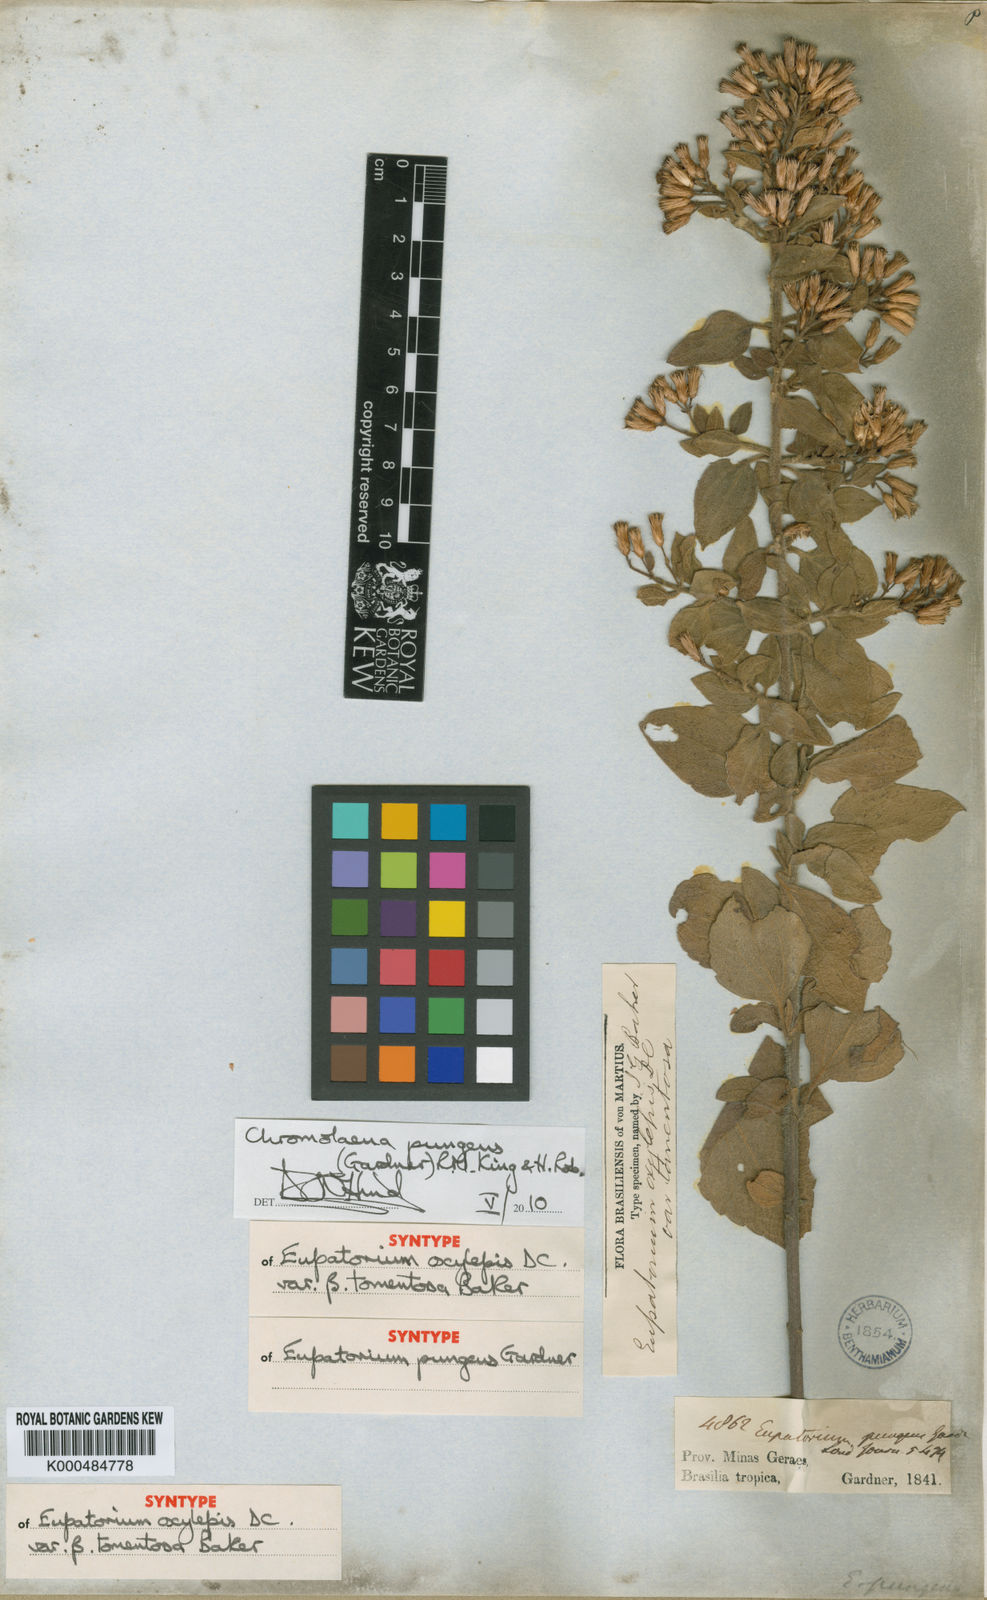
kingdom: Plantae
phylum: Tracheophyta
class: Magnoliopsida
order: Asterales
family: Asteraceae
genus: Chromolaena
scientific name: Chromolaena pungens
